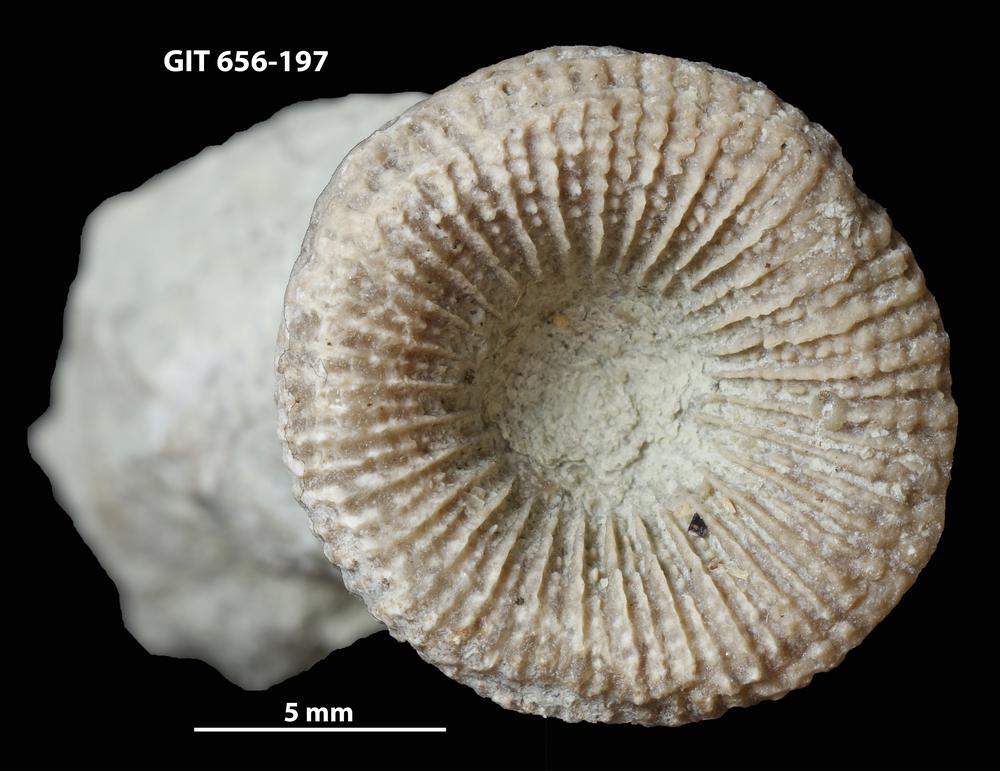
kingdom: Animalia
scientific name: Animalia
